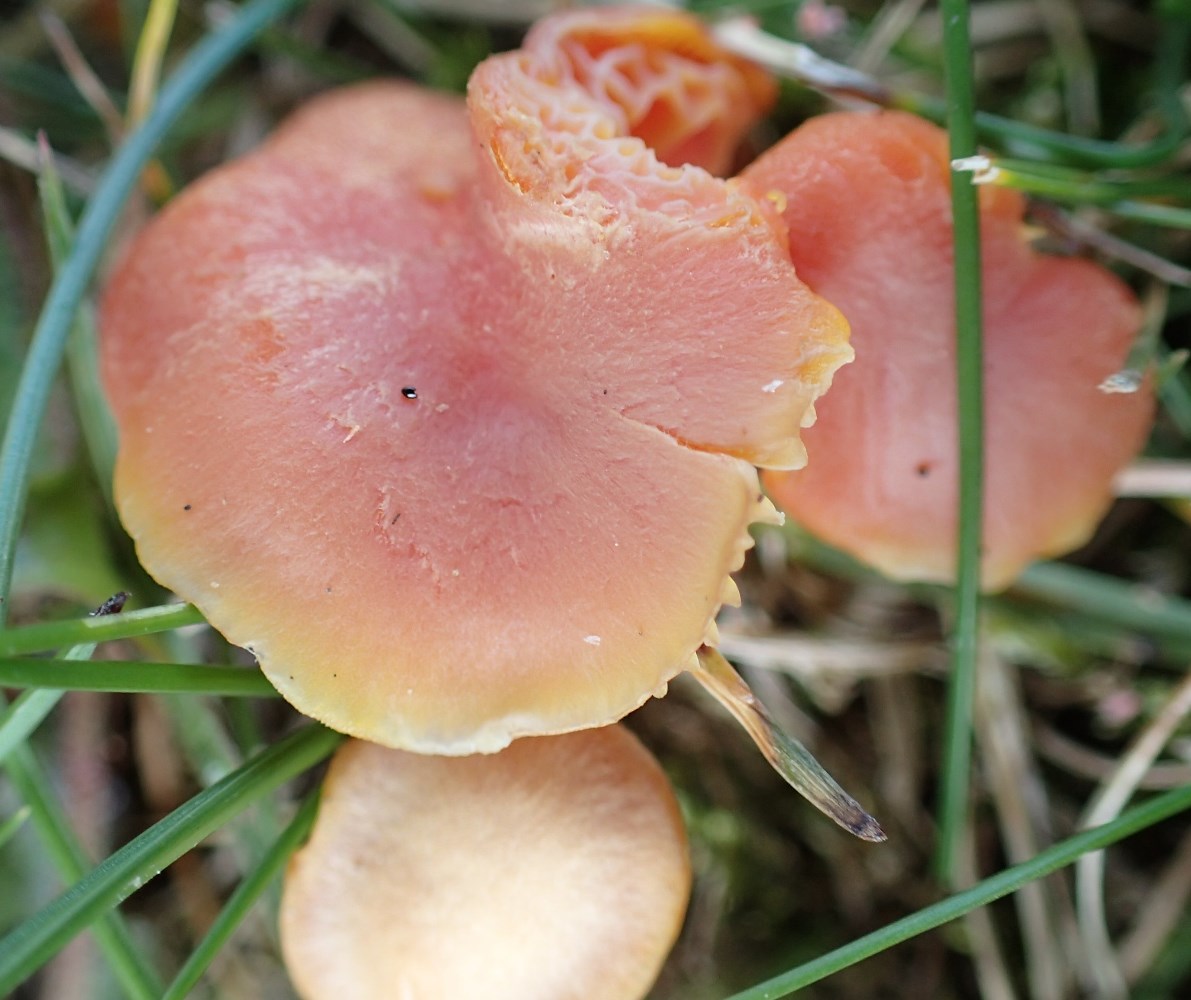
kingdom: Fungi
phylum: Basidiomycota
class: Agaricomycetes
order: Agaricales
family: Hygrophoraceae
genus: Hygrocybe
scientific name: Hygrocybe reidii
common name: honning-vokshat
